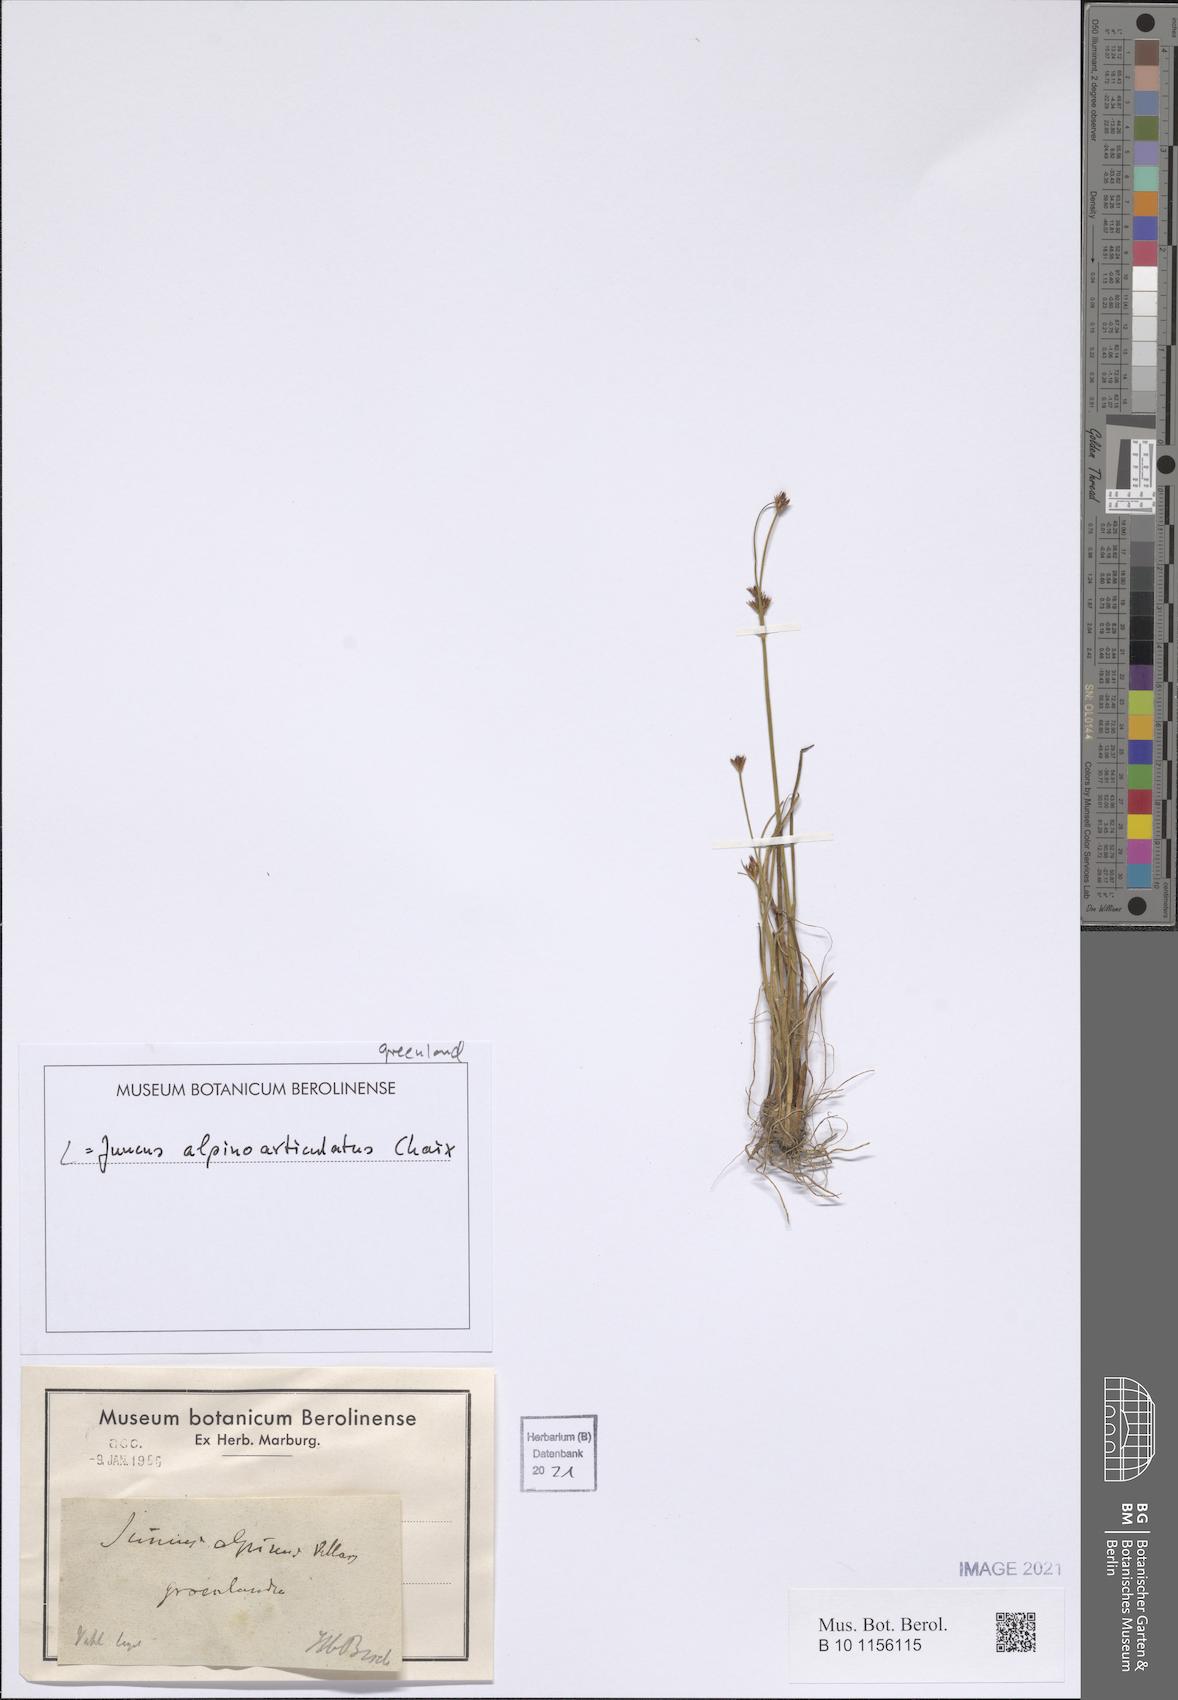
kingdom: Plantae
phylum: Tracheophyta
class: Liliopsida
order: Poales
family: Juncaceae
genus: Juncus
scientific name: Juncus alpinoarticulatus
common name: Alpine rush
